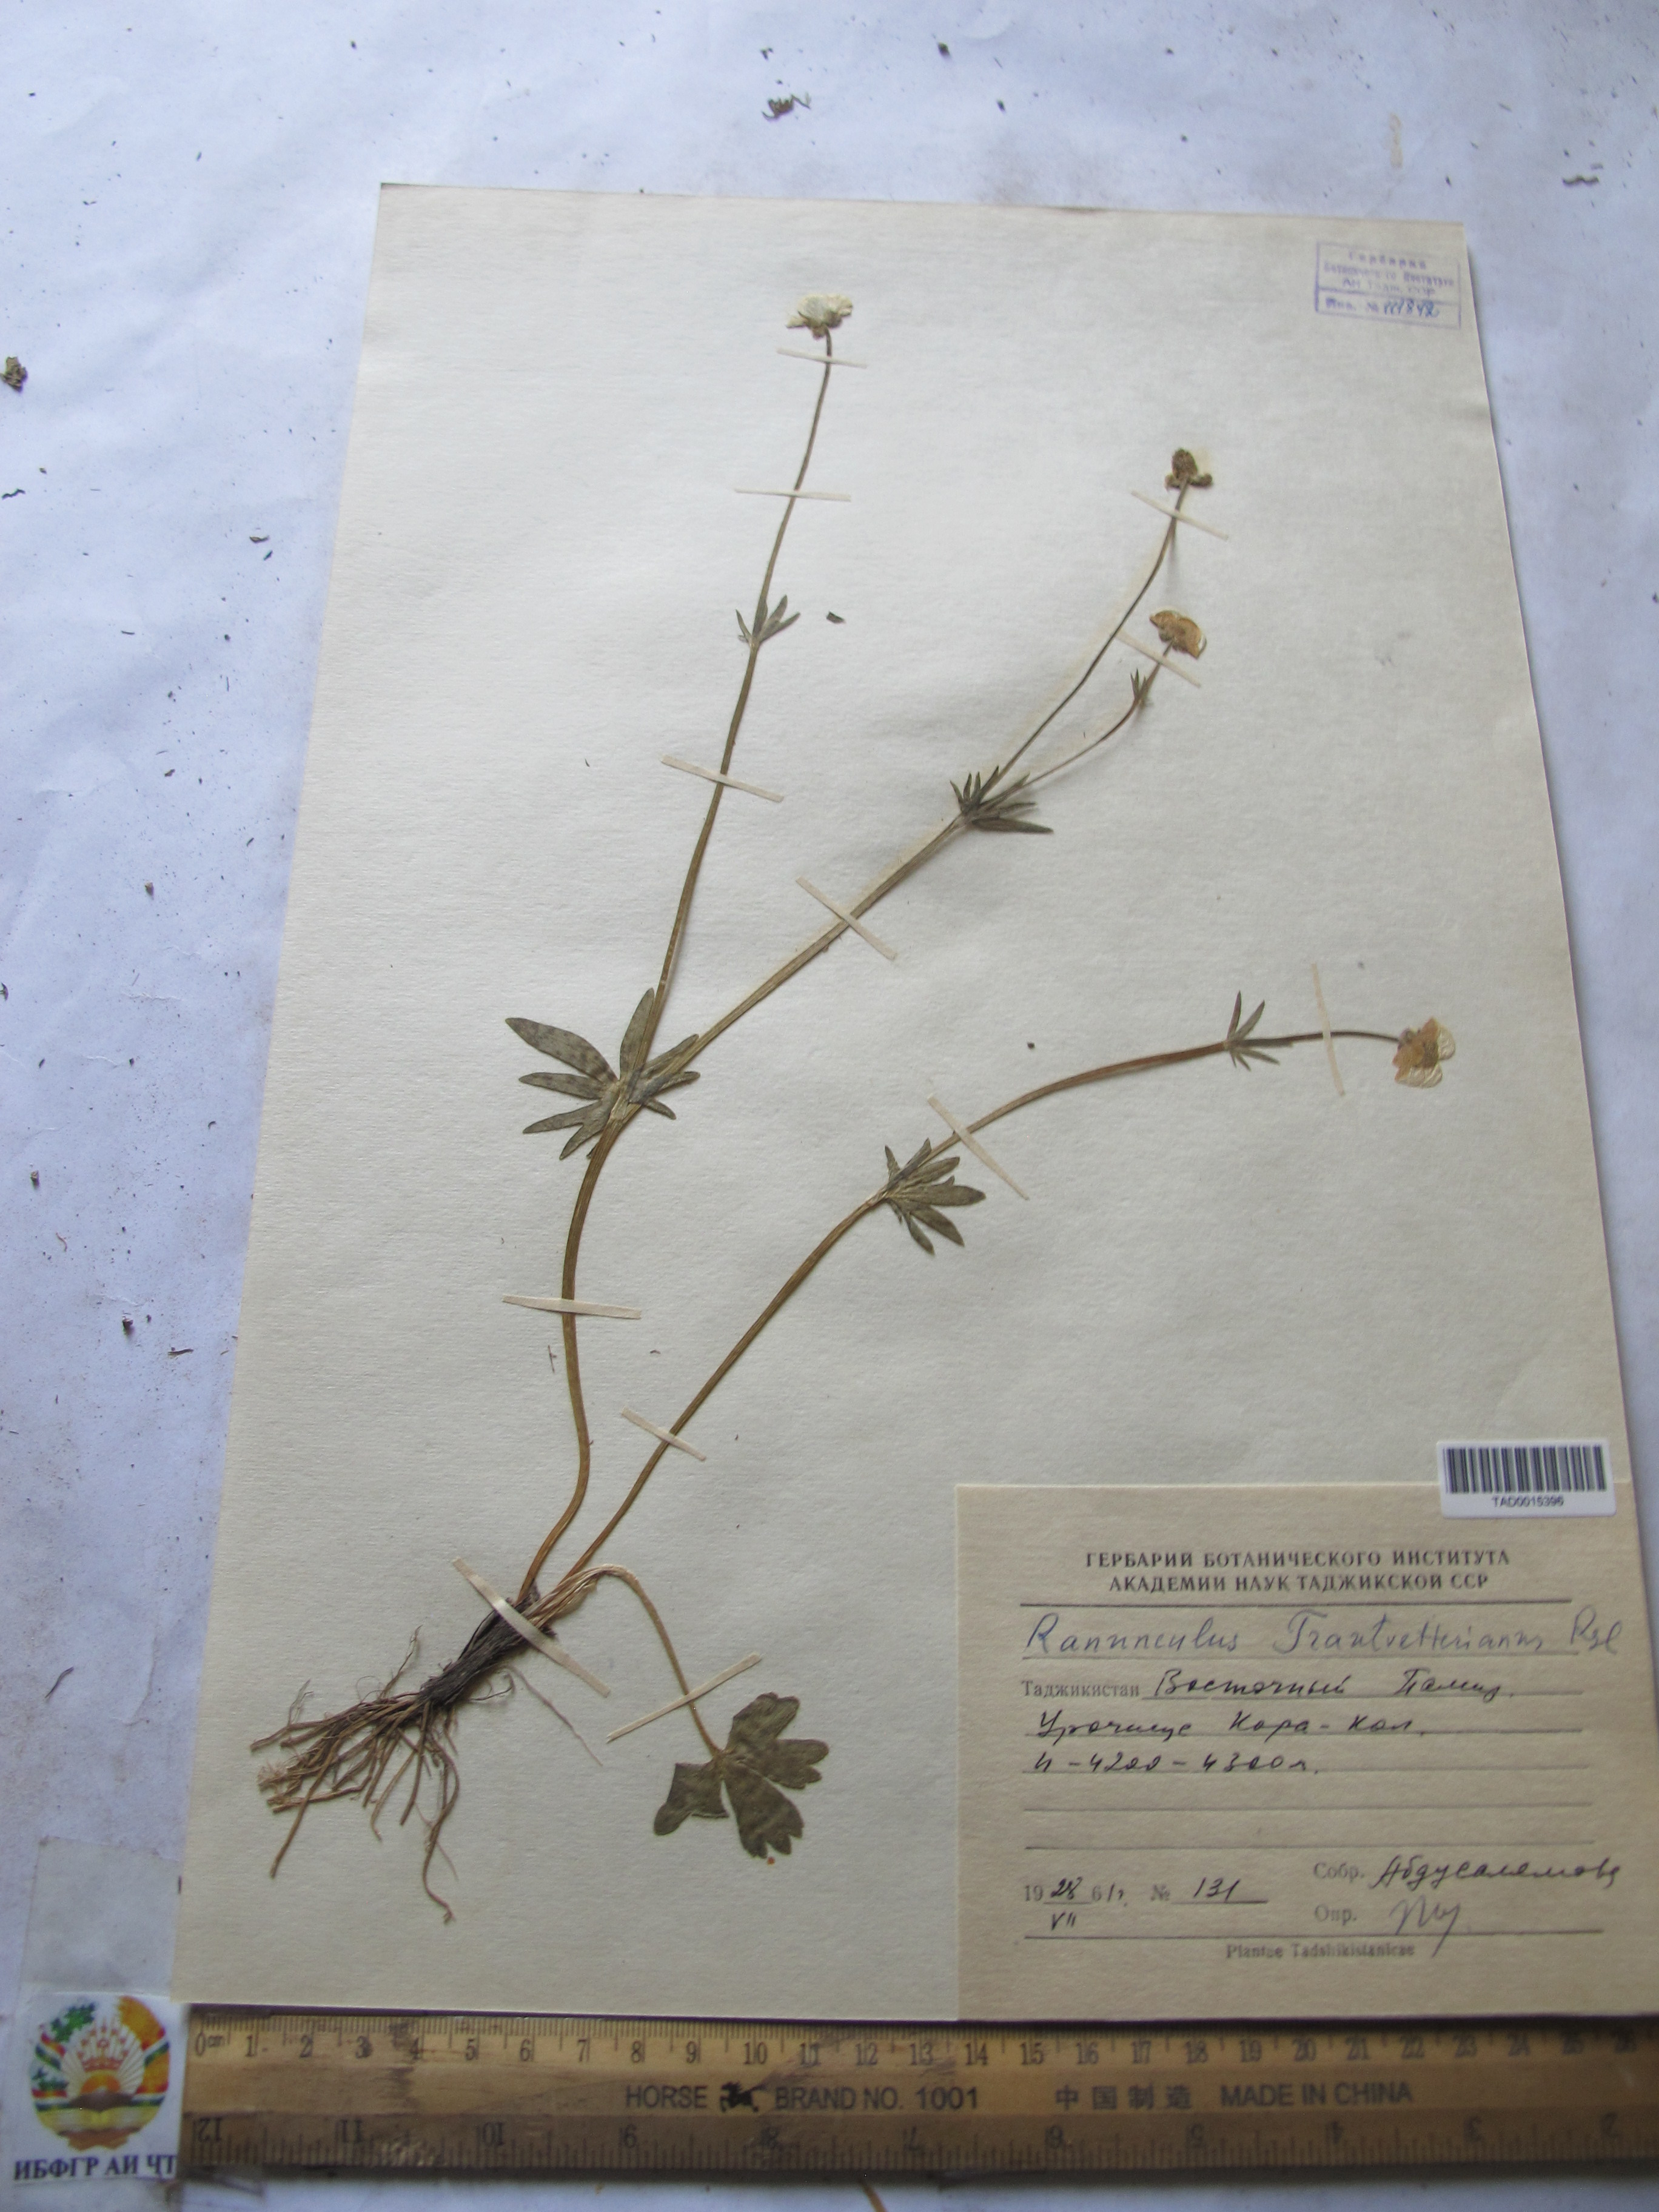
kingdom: Plantae
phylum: Tracheophyta
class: Magnoliopsida
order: Ranunculales
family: Ranunculaceae
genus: Ranunculus
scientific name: Ranunculus songaricus
